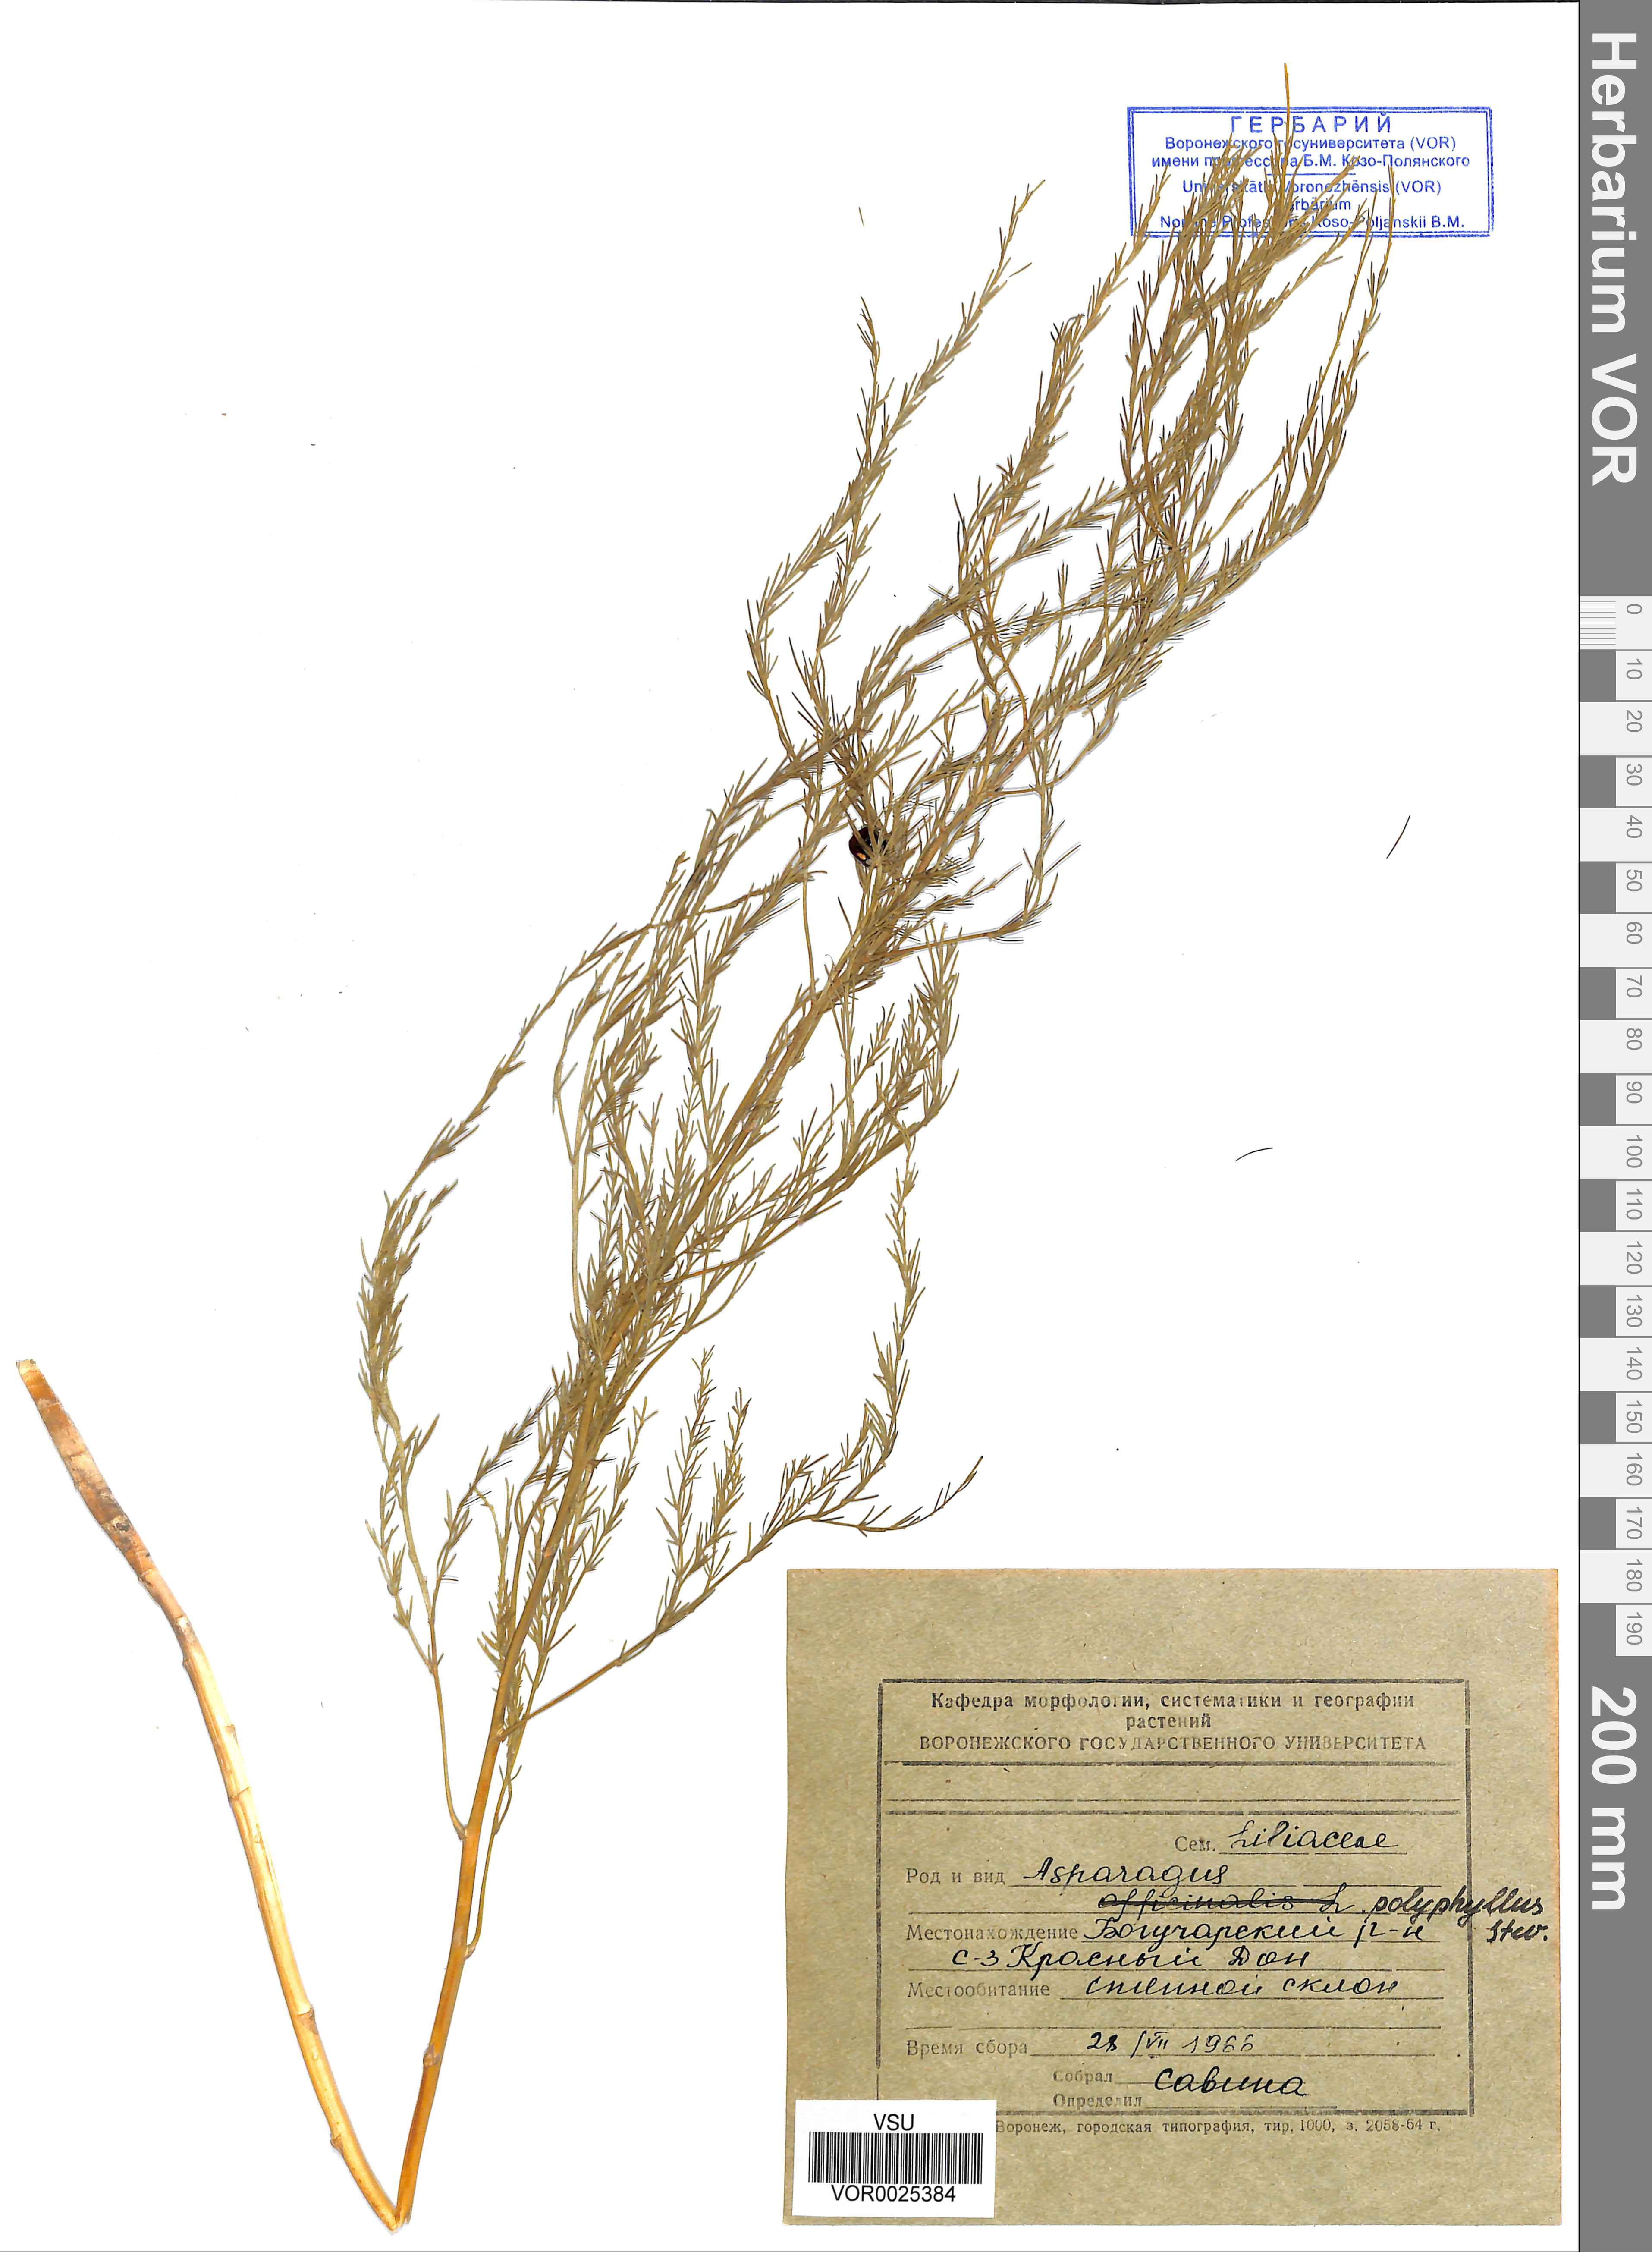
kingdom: Plantae
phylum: Tracheophyta
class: Liliopsida
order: Asparagales
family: Asparagaceae
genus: Asparagus
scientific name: Asparagus officinalis
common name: Garden asparagus
